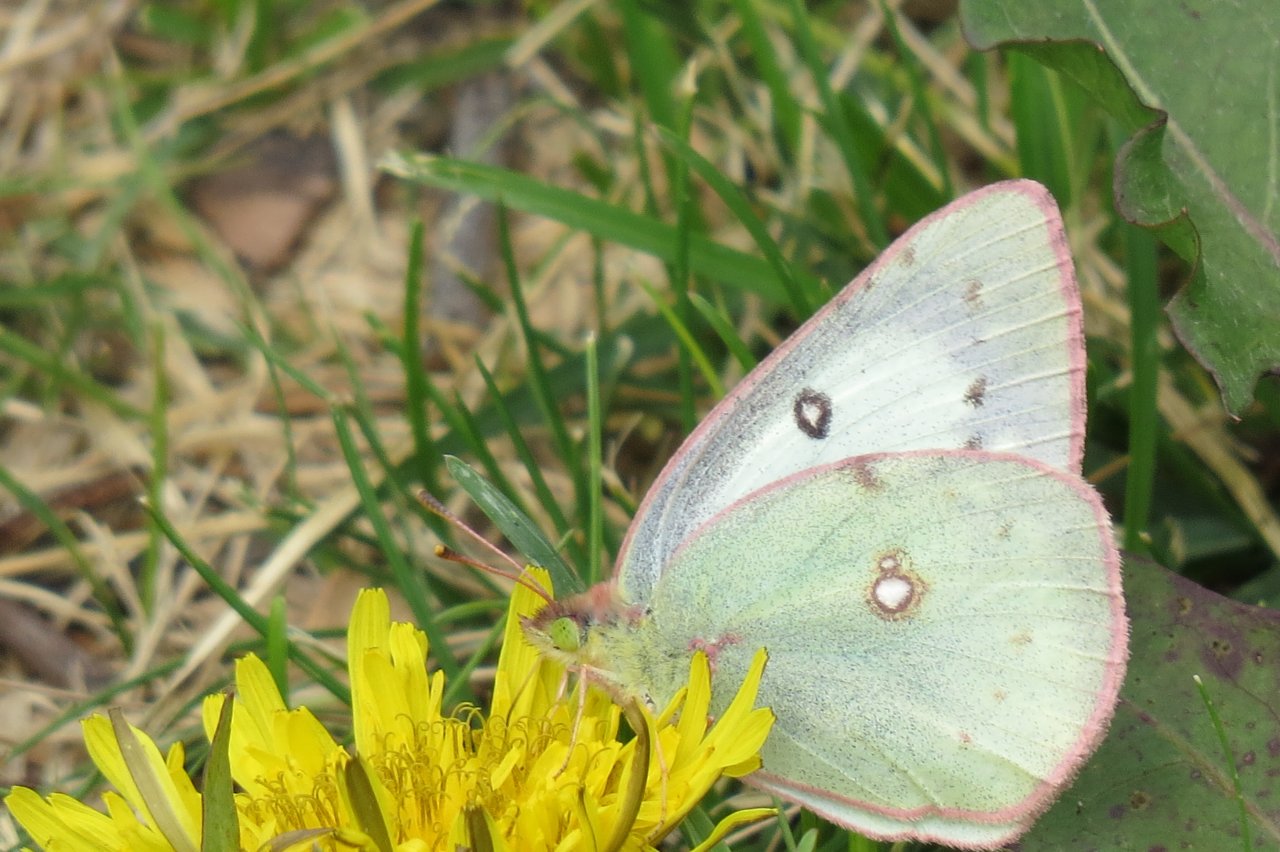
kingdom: Animalia
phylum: Arthropoda
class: Insecta
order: Lepidoptera
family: Pieridae
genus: Colias
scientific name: Colias philodice
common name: Clouded Sulphur
